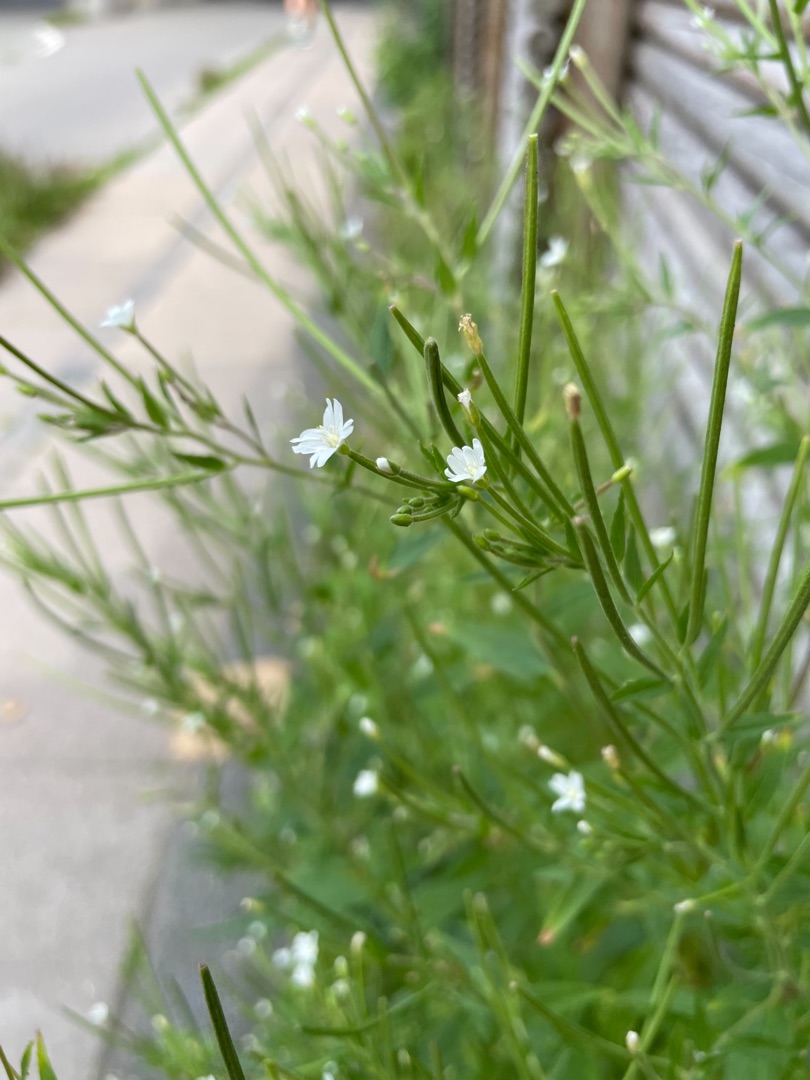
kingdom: Plantae
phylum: Tracheophyta
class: Magnoliopsida
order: Myrtales
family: Onagraceae
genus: Epilobium
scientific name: Epilobium ciliatum
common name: Hvid dueurt
